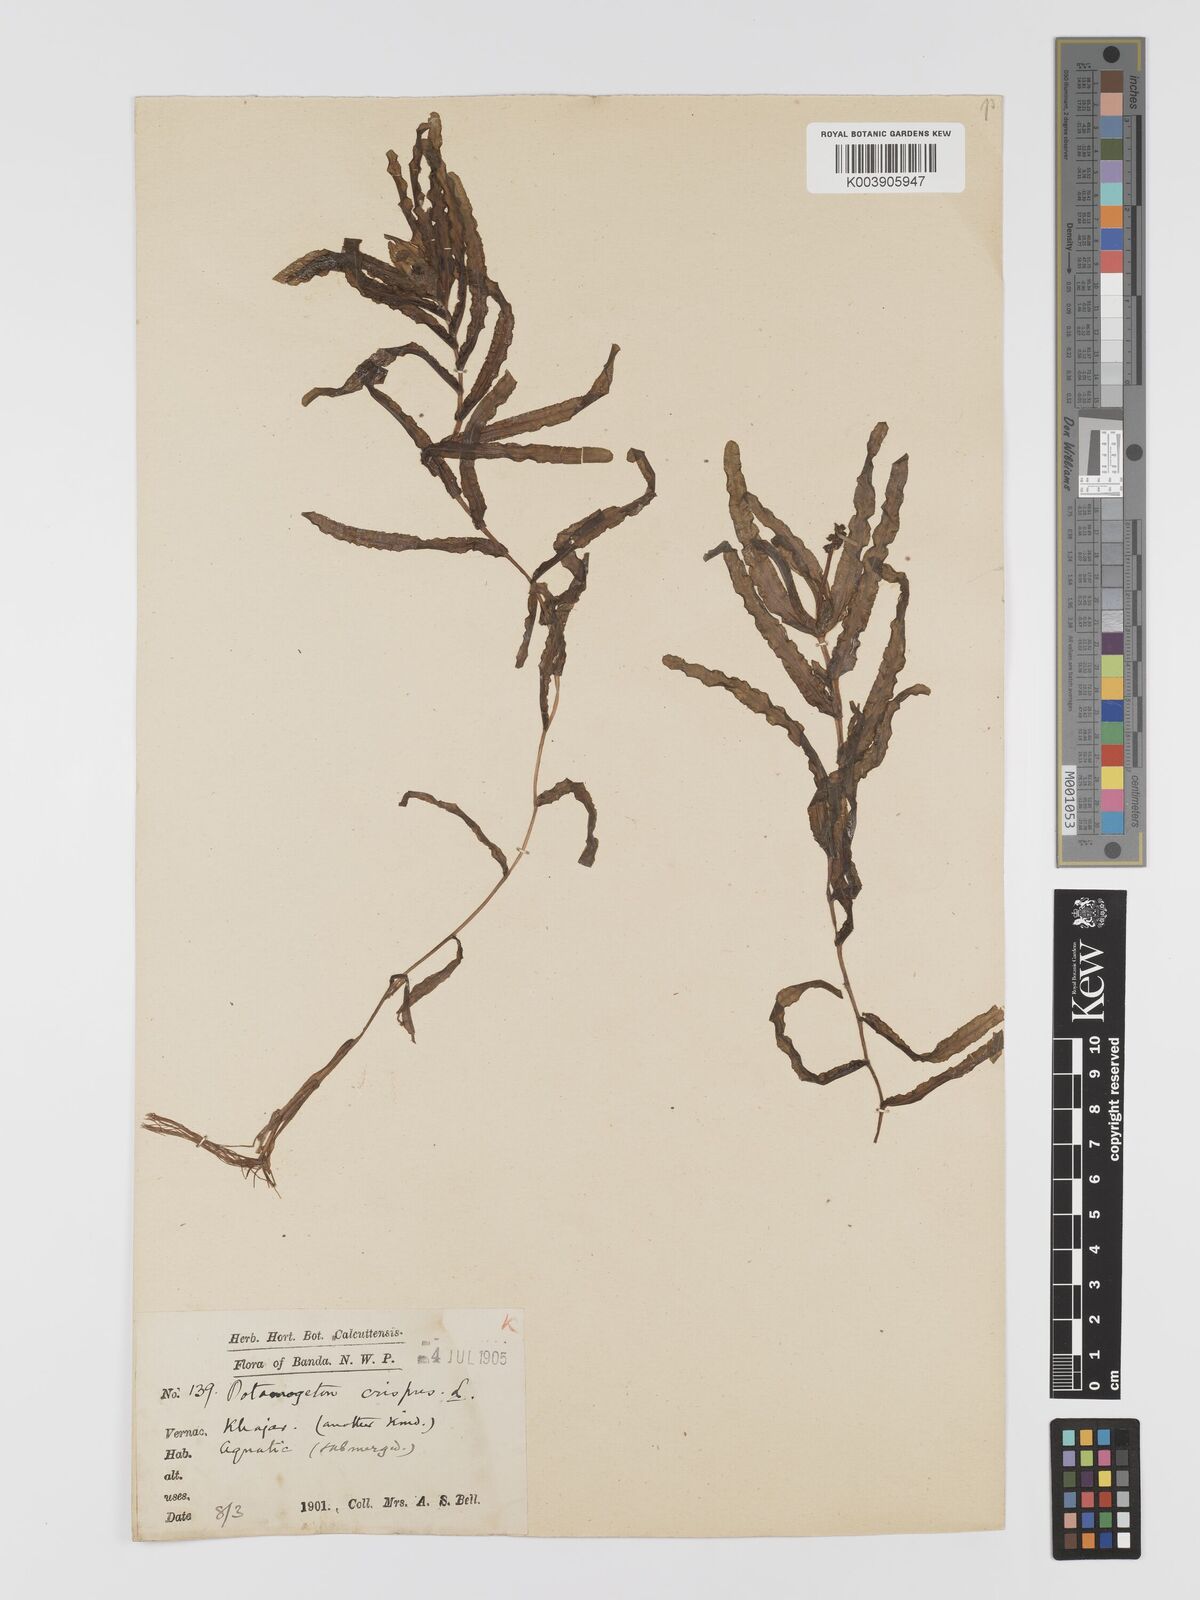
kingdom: Plantae
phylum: Tracheophyta
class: Liliopsida
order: Alismatales
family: Potamogetonaceae
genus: Potamogeton
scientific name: Potamogeton crispus
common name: Curled pondweed
